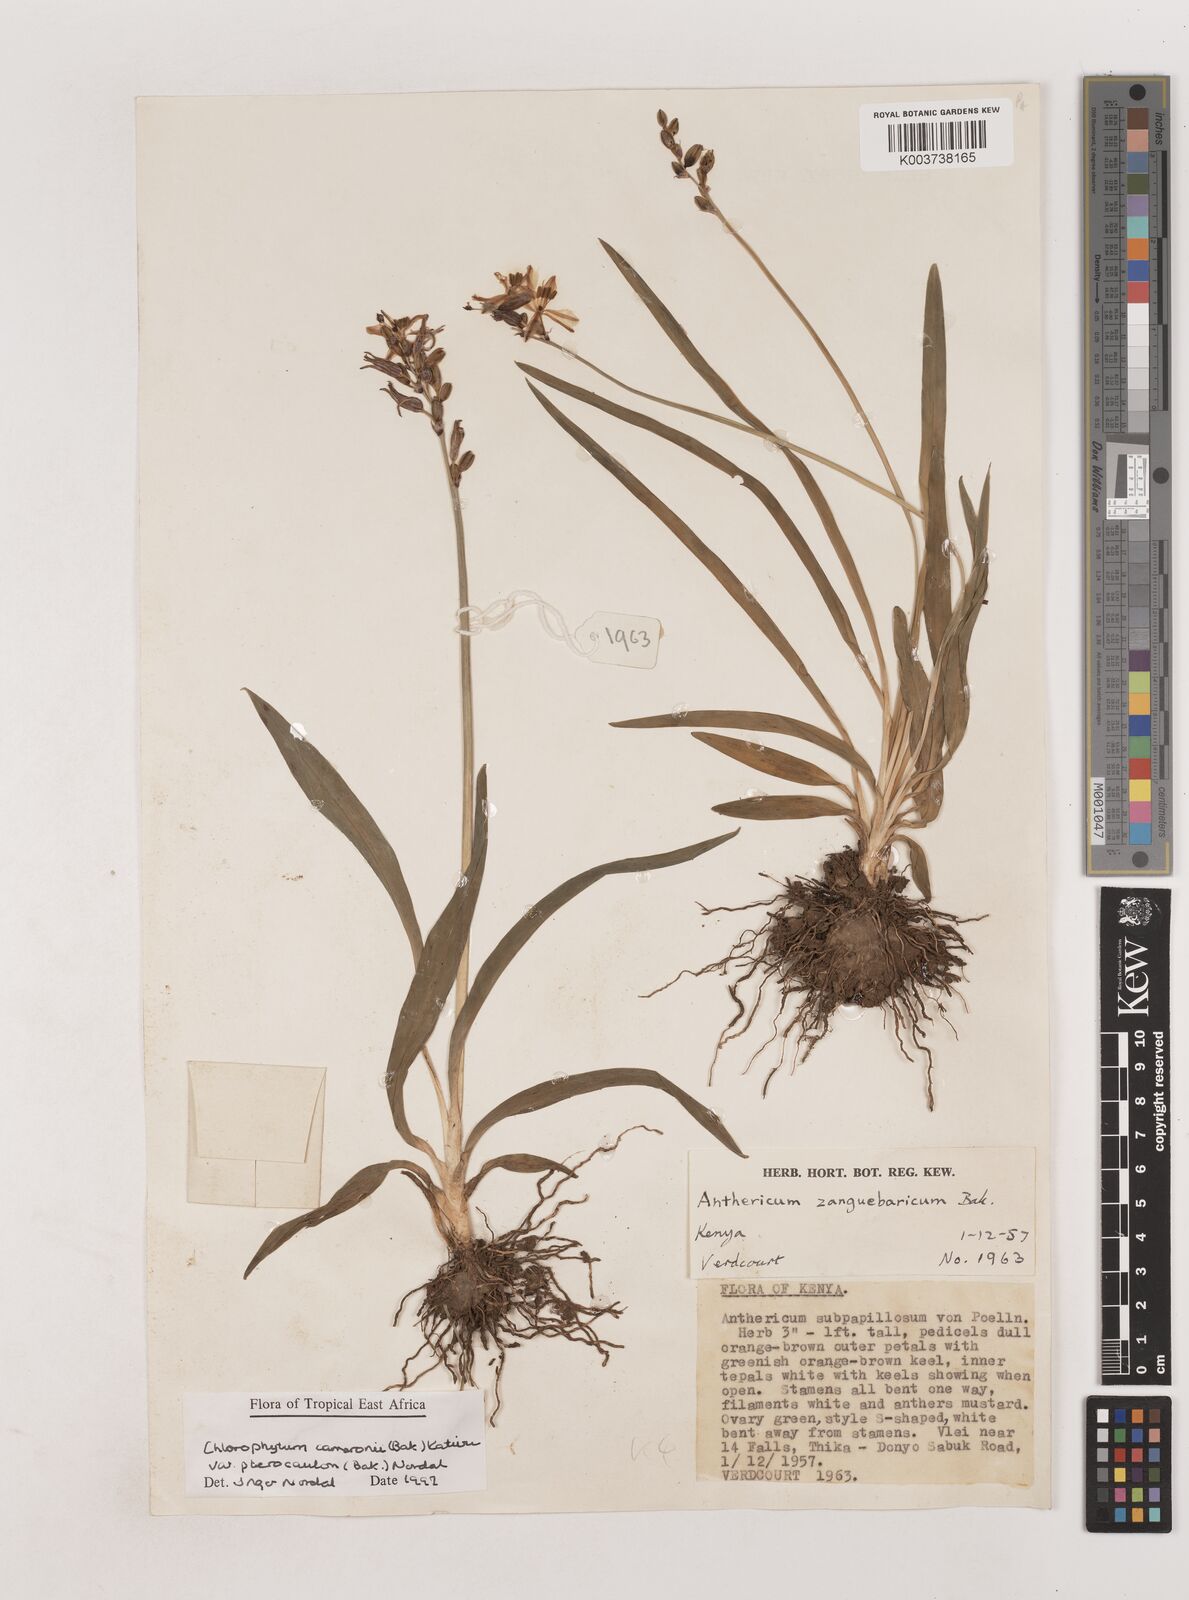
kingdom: Plantae
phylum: Tracheophyta
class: Liliopsida
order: Asparagales
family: Asparagaceae
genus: Chlorophytum
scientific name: Chlorophytum cameronii
